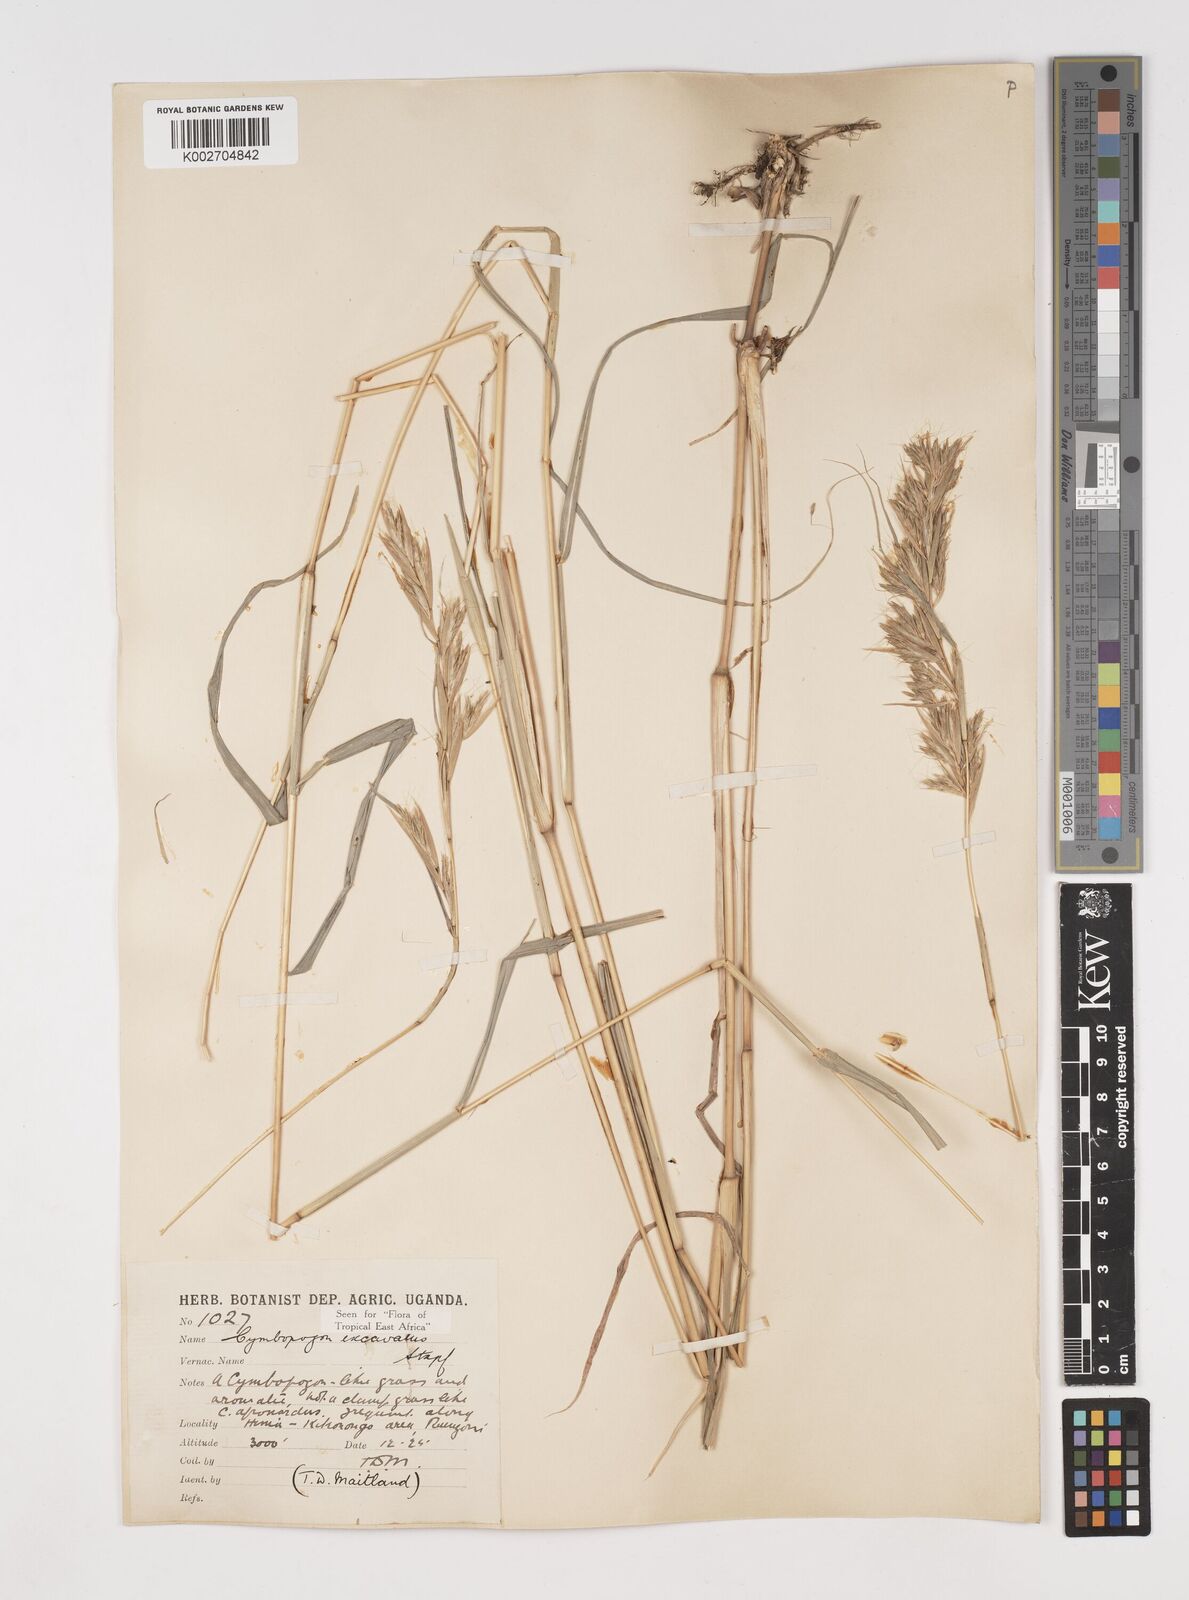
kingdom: Plantae
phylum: Tracheophyta
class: Liliopsida
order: Poales
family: Poaceae
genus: Cymbopogon
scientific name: Cymbopogon caesius
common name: Kachi grass
